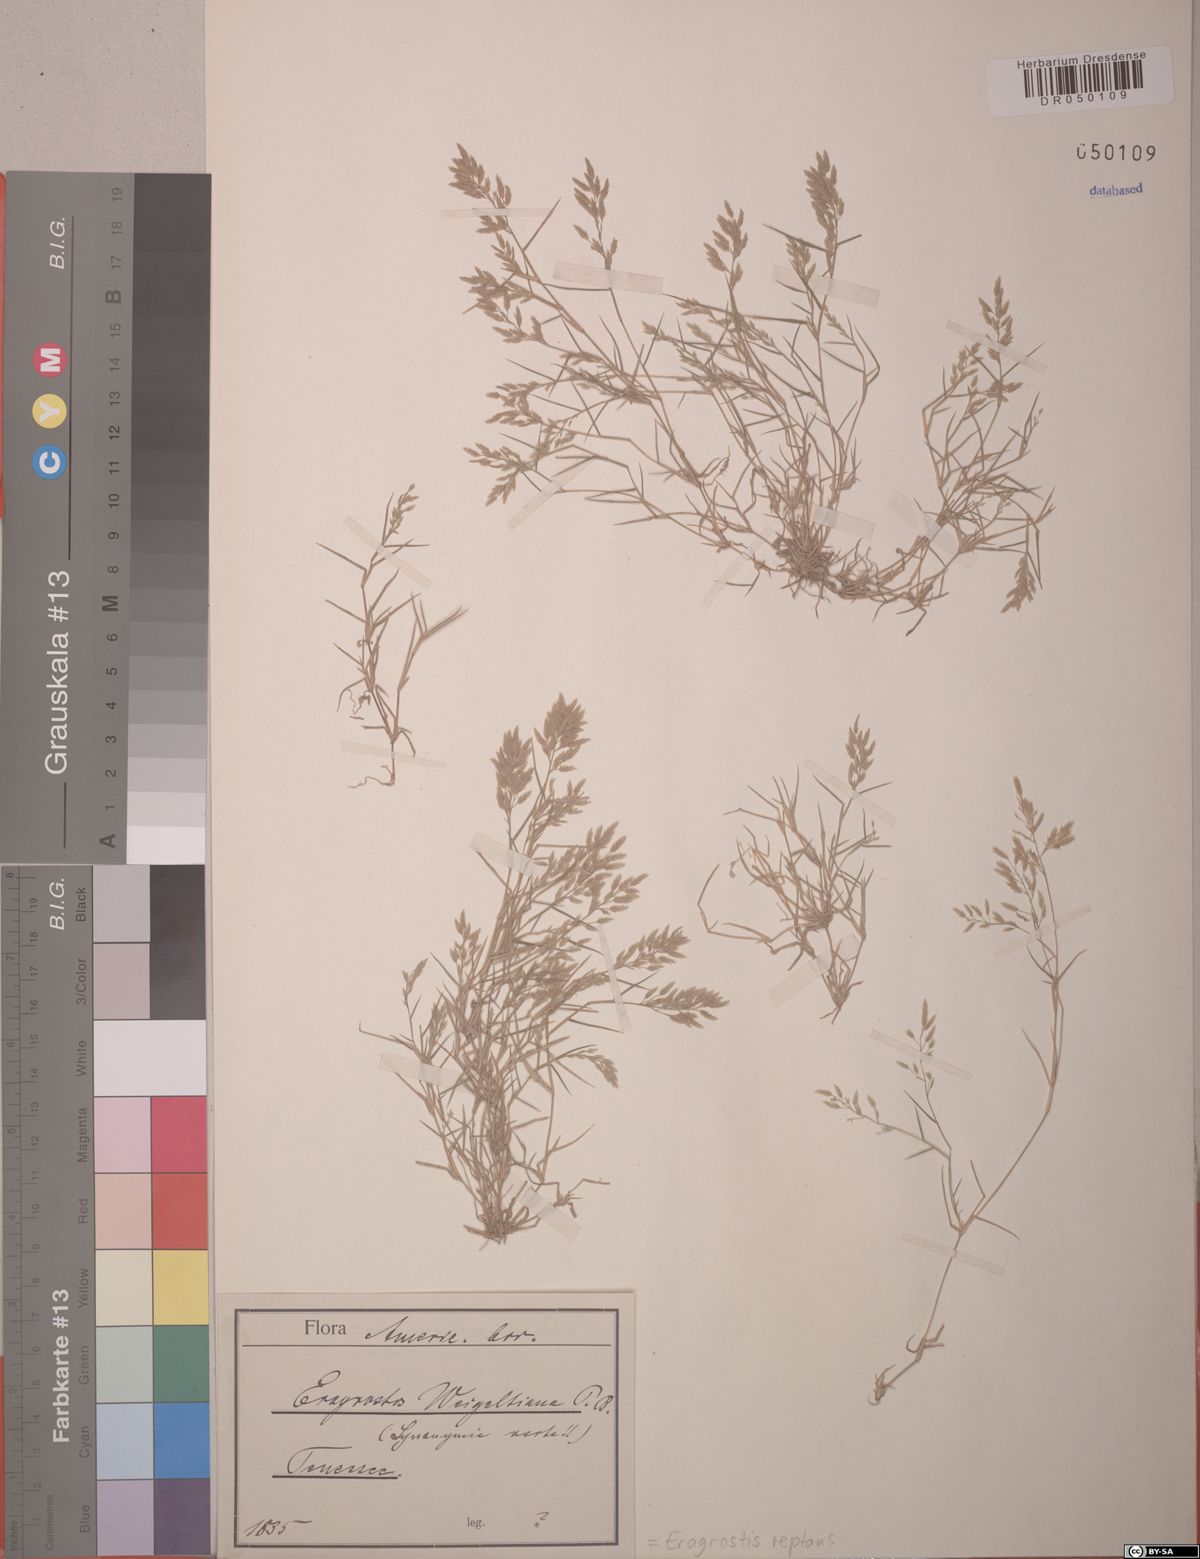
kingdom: Plantae
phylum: Tracheophyta
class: Liliopsida
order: Poales
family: Poaceae
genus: Eragrostis
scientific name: Eragrostis reptans
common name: Creeping love grass
